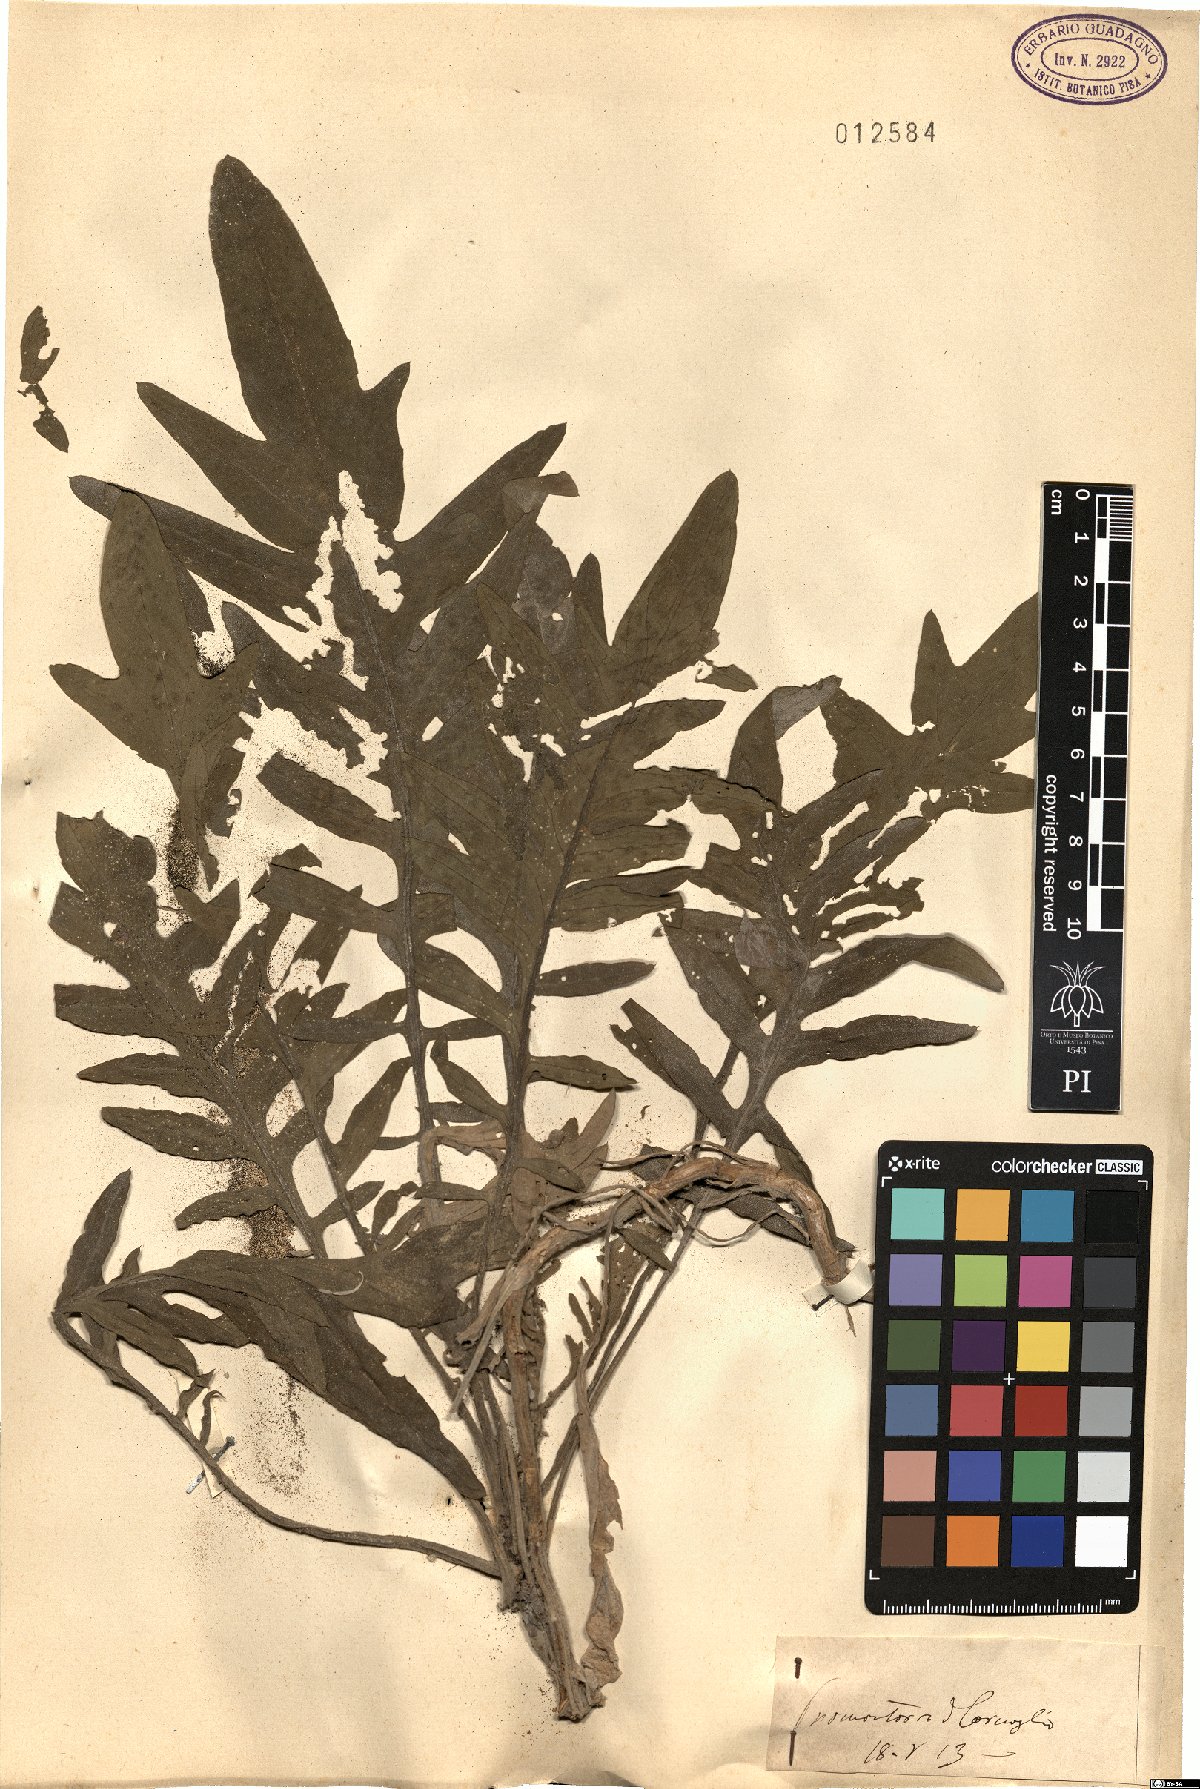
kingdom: Plantae
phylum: Tracheophyta
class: Magnoliopsida
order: Asterales
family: Asteraceae
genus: Centaurea
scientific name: Centaurea
